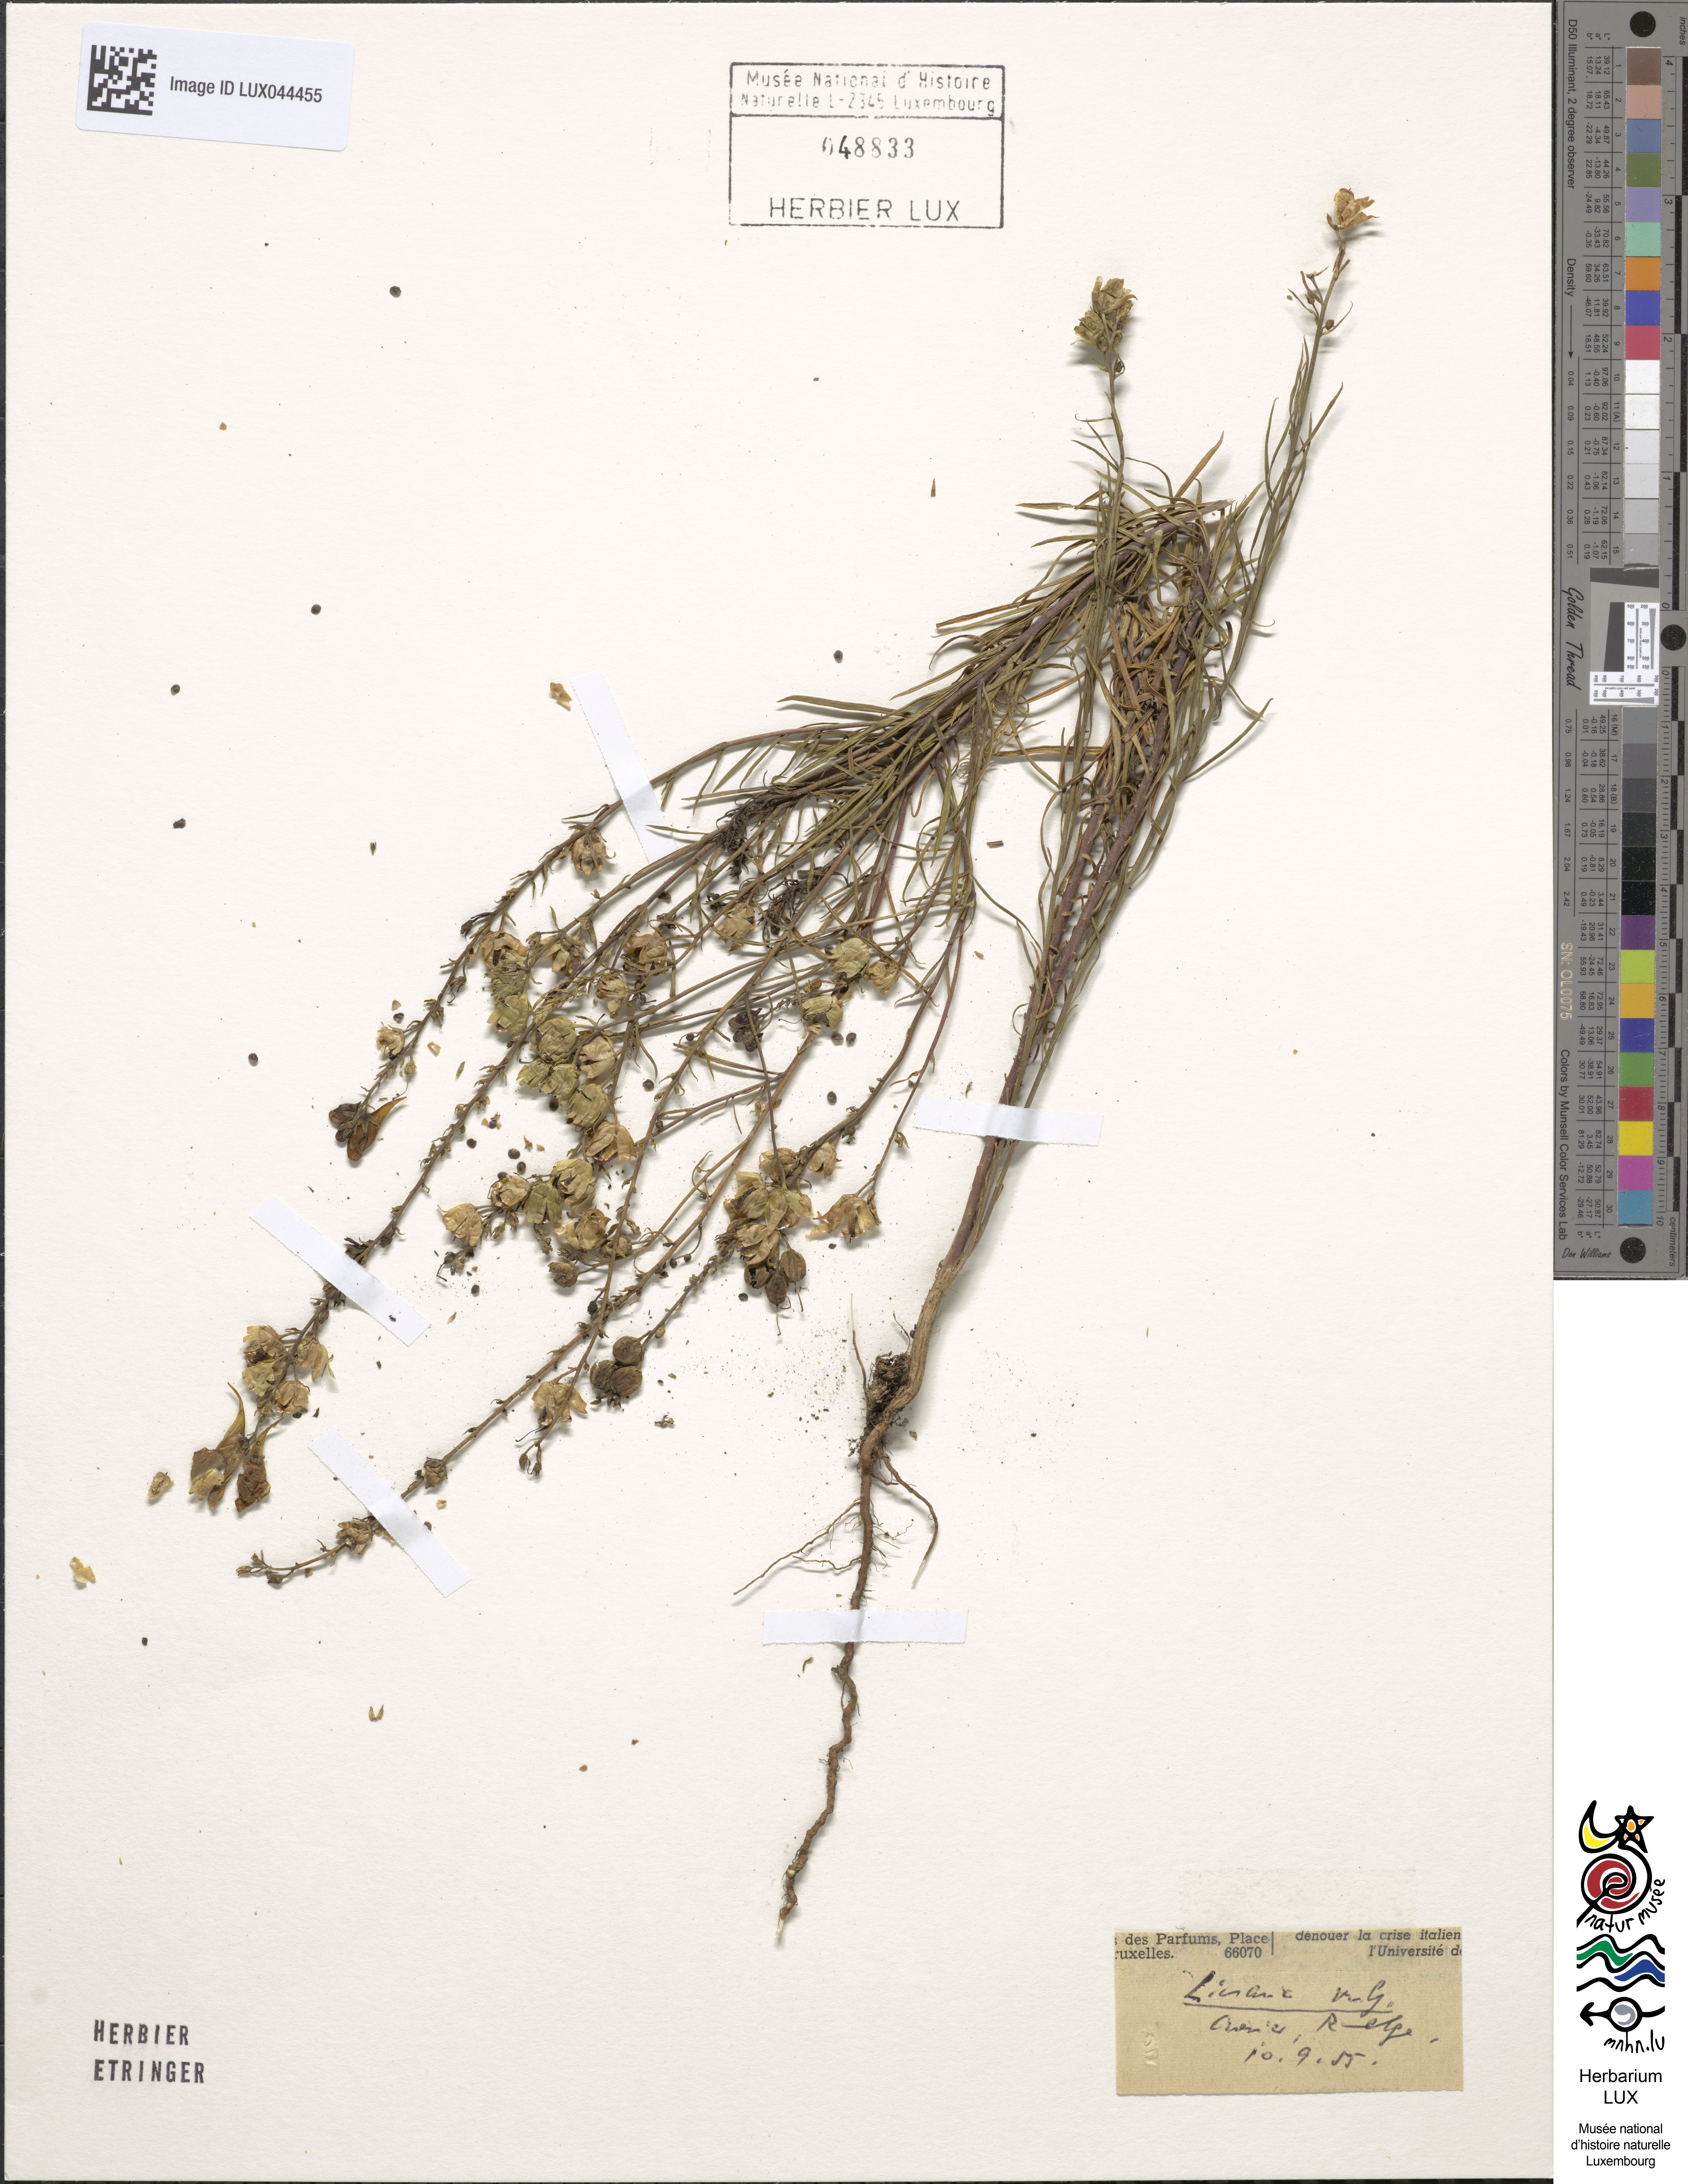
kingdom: Plantae
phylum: Tracheophyta
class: Magnoliopsida
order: Lamiales
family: Plantaginaceae
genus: Linaria
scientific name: Linaria vulgaris
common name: Butter and eggs
